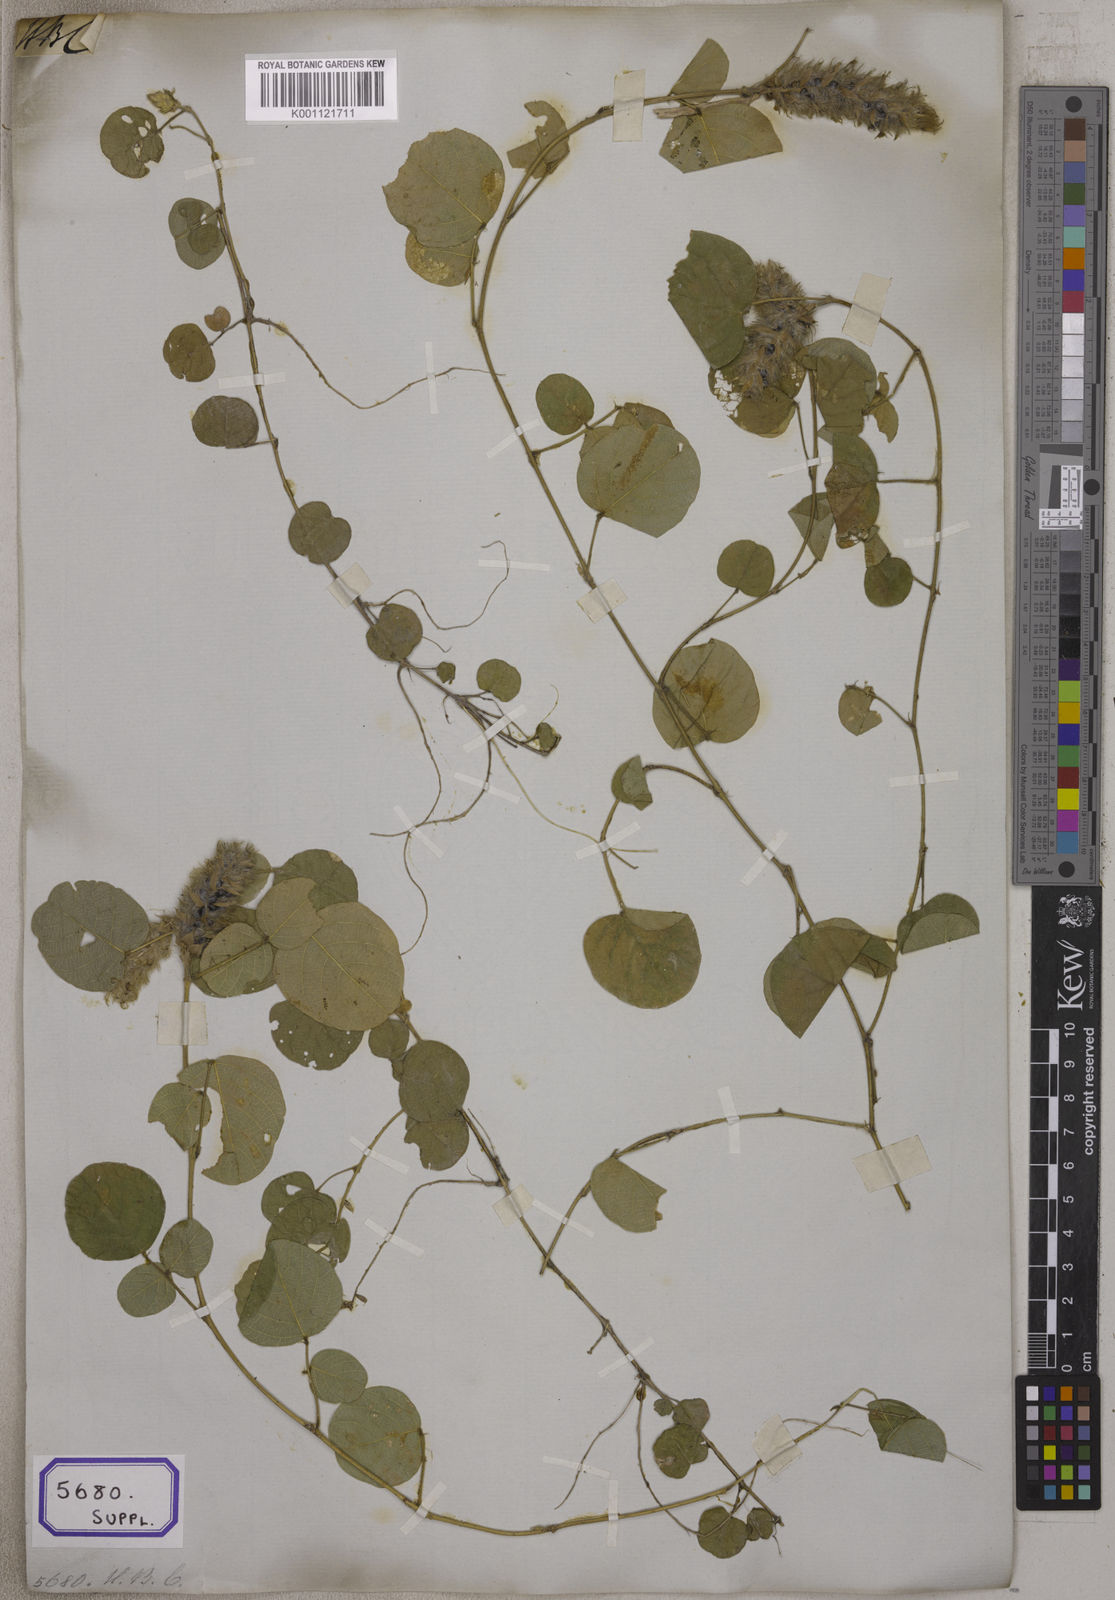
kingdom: Plantae
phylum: Tracheophyta
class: Magnoliopsida
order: Fabales
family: Fabaceae
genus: Uraria
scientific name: Uraria lagopodioides
